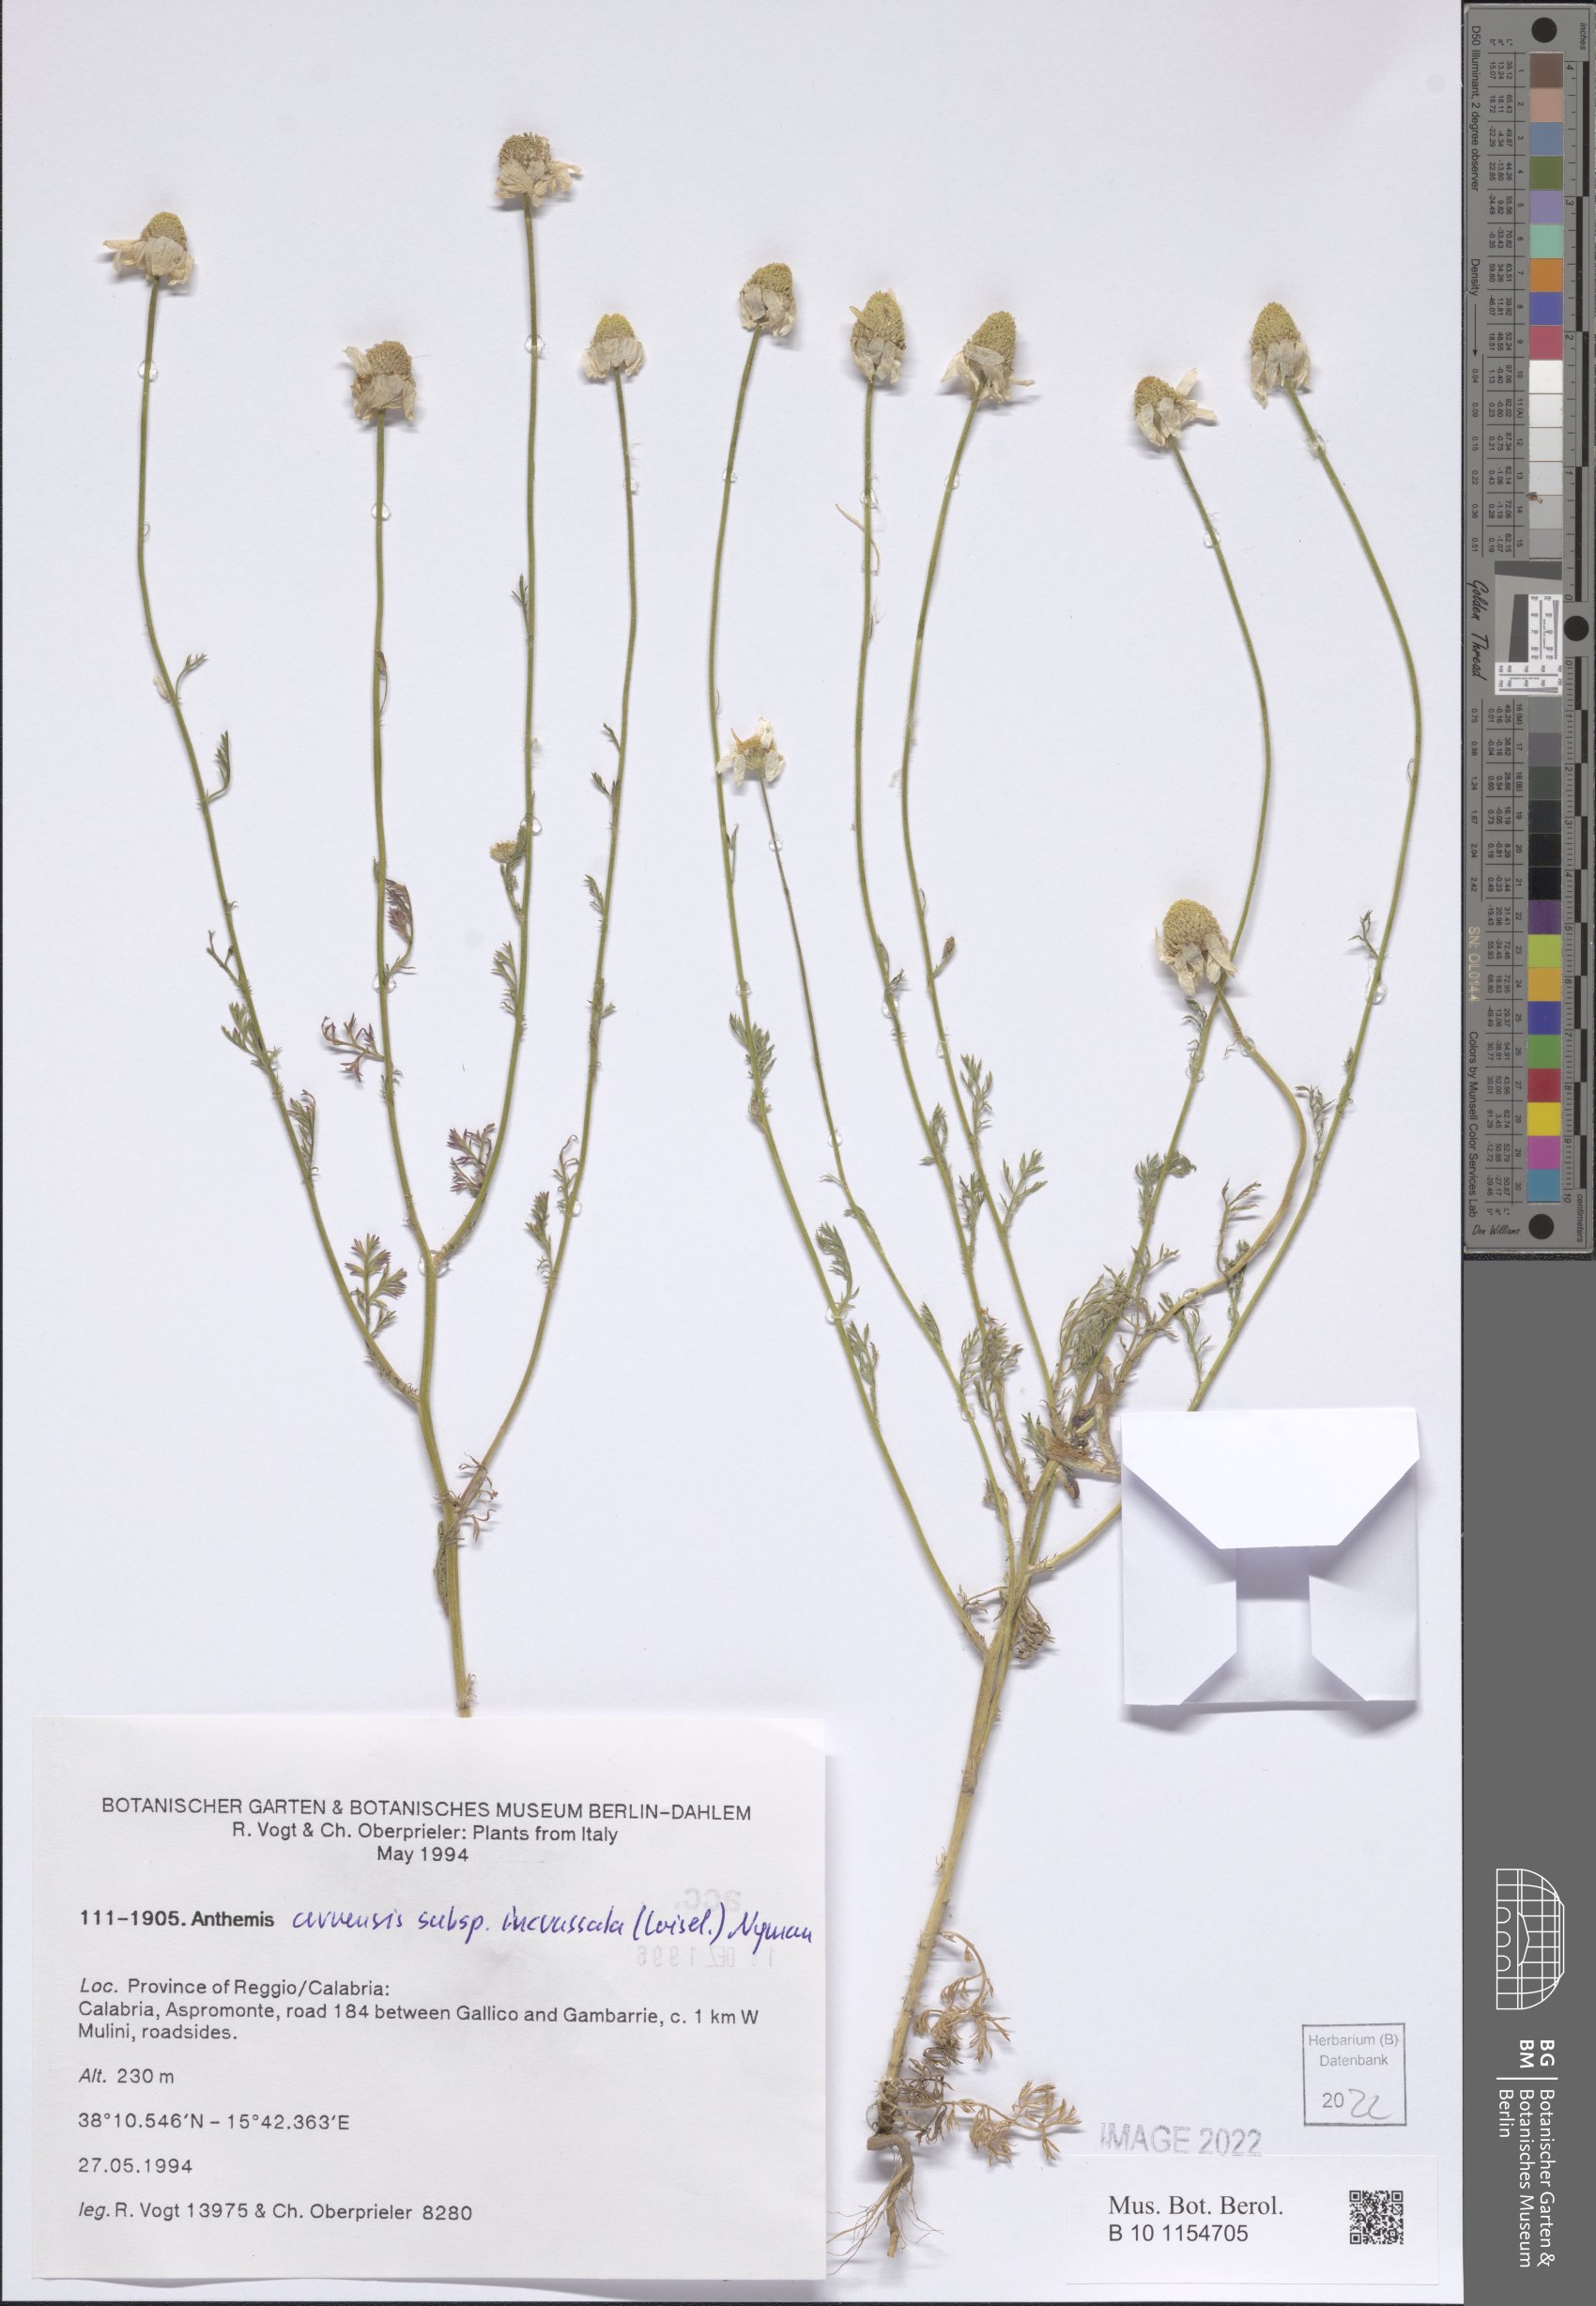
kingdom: Plantae
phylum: Tracheophyta
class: Magnoliopsida
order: Asterales
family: Asteraceae
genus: Anthemis
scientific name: Anthemis arvensis
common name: Corn chamomile
